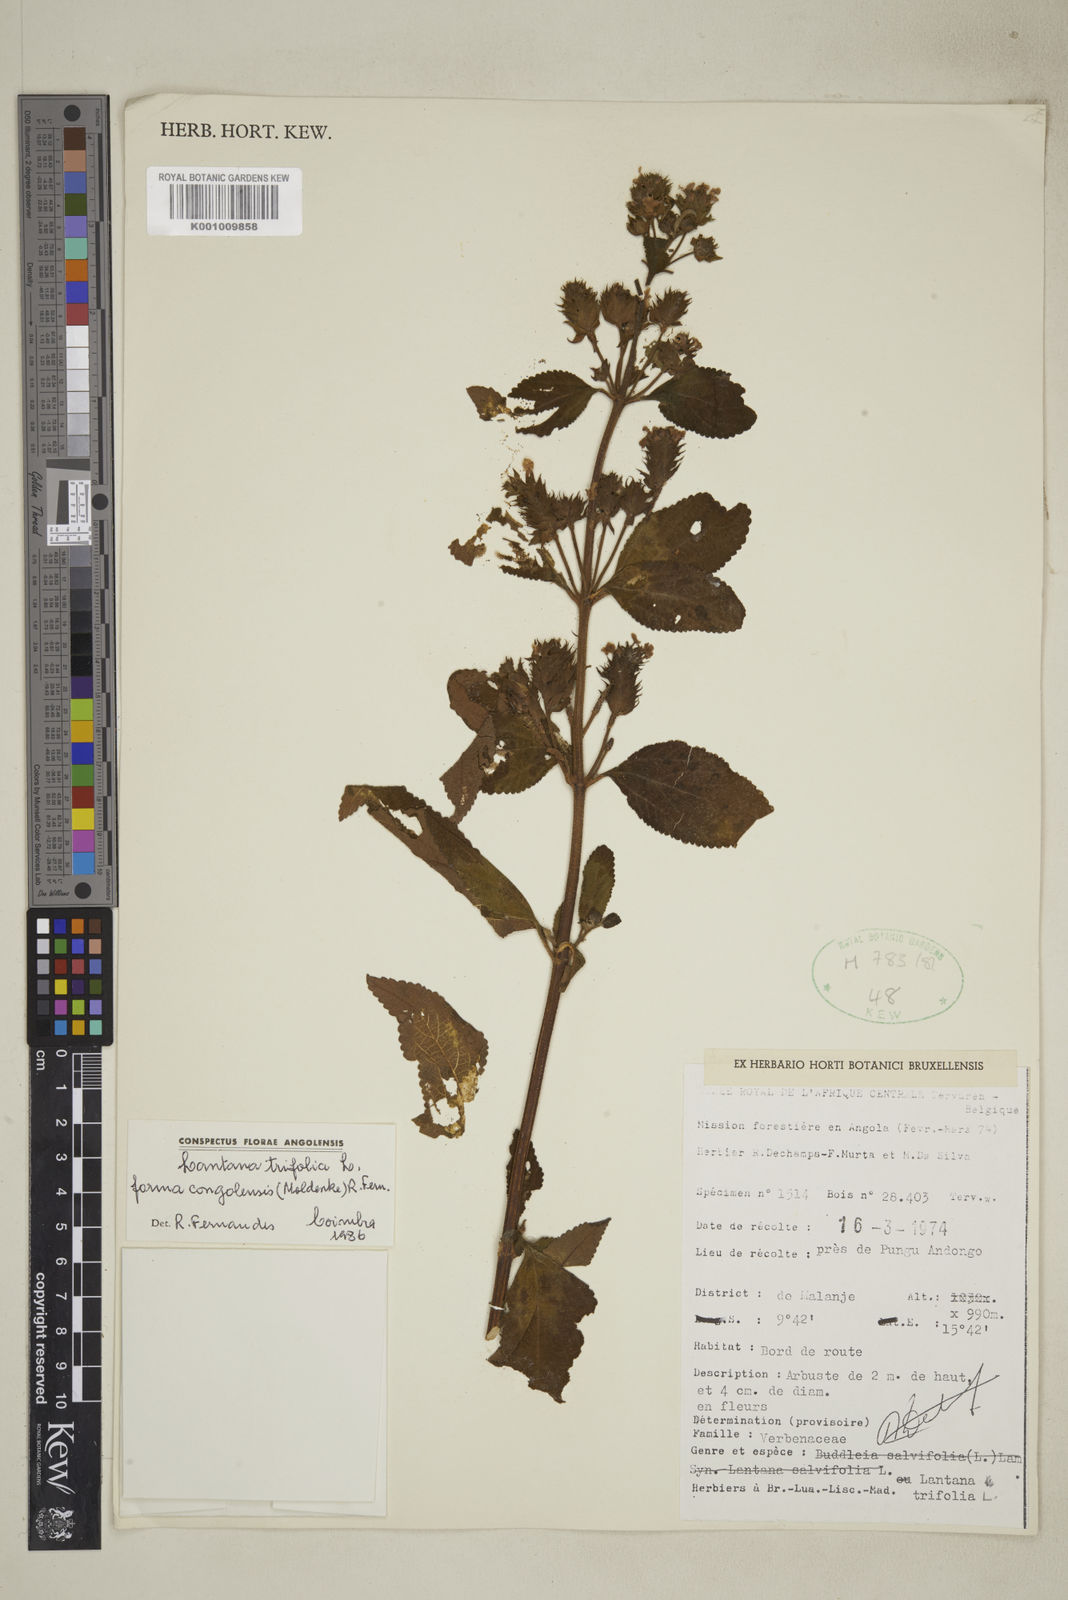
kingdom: Plantae
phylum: Tracheophyta
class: Magnoliopsida
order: Lamiales
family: Verbenaceae
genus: Lantana
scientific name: Lantana trifolia
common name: Sweet-sage
